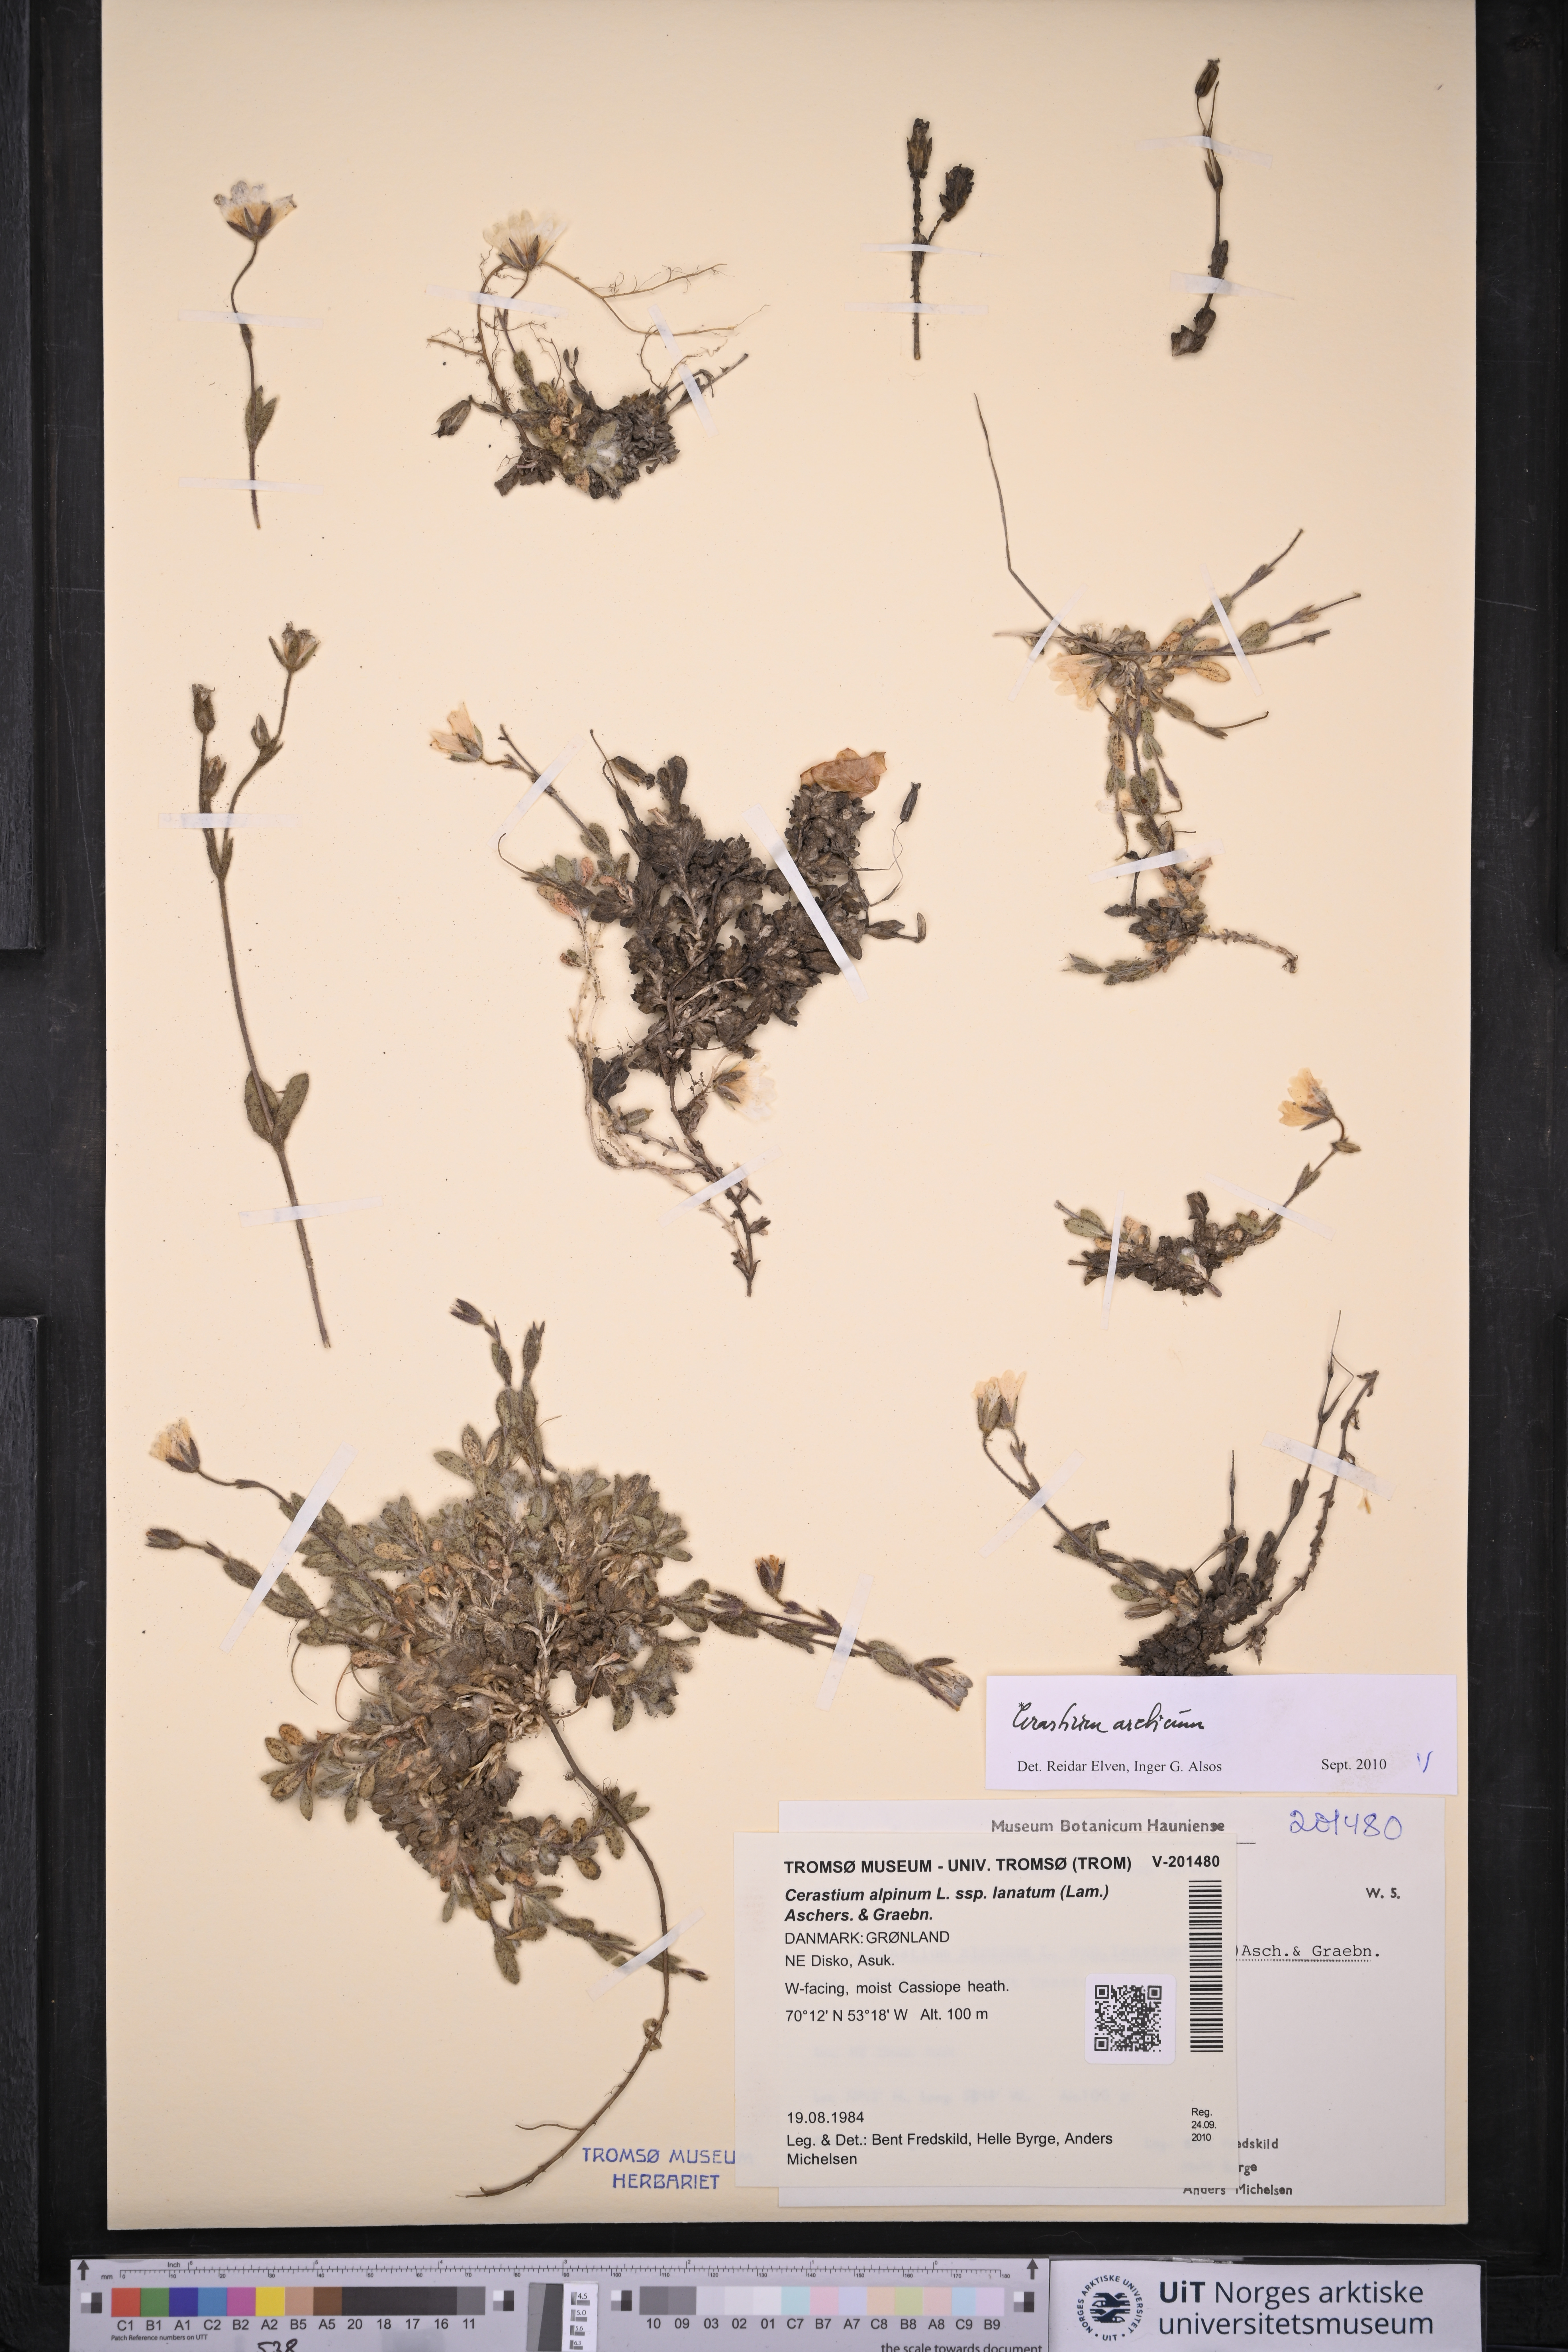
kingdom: Plantae
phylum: Tracheophyta
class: Magnoliopsida
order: Caryophyllales
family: Caryophyllaceae
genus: Cerastium
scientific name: Cerastium arcticum
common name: Arctic mouse-ear
